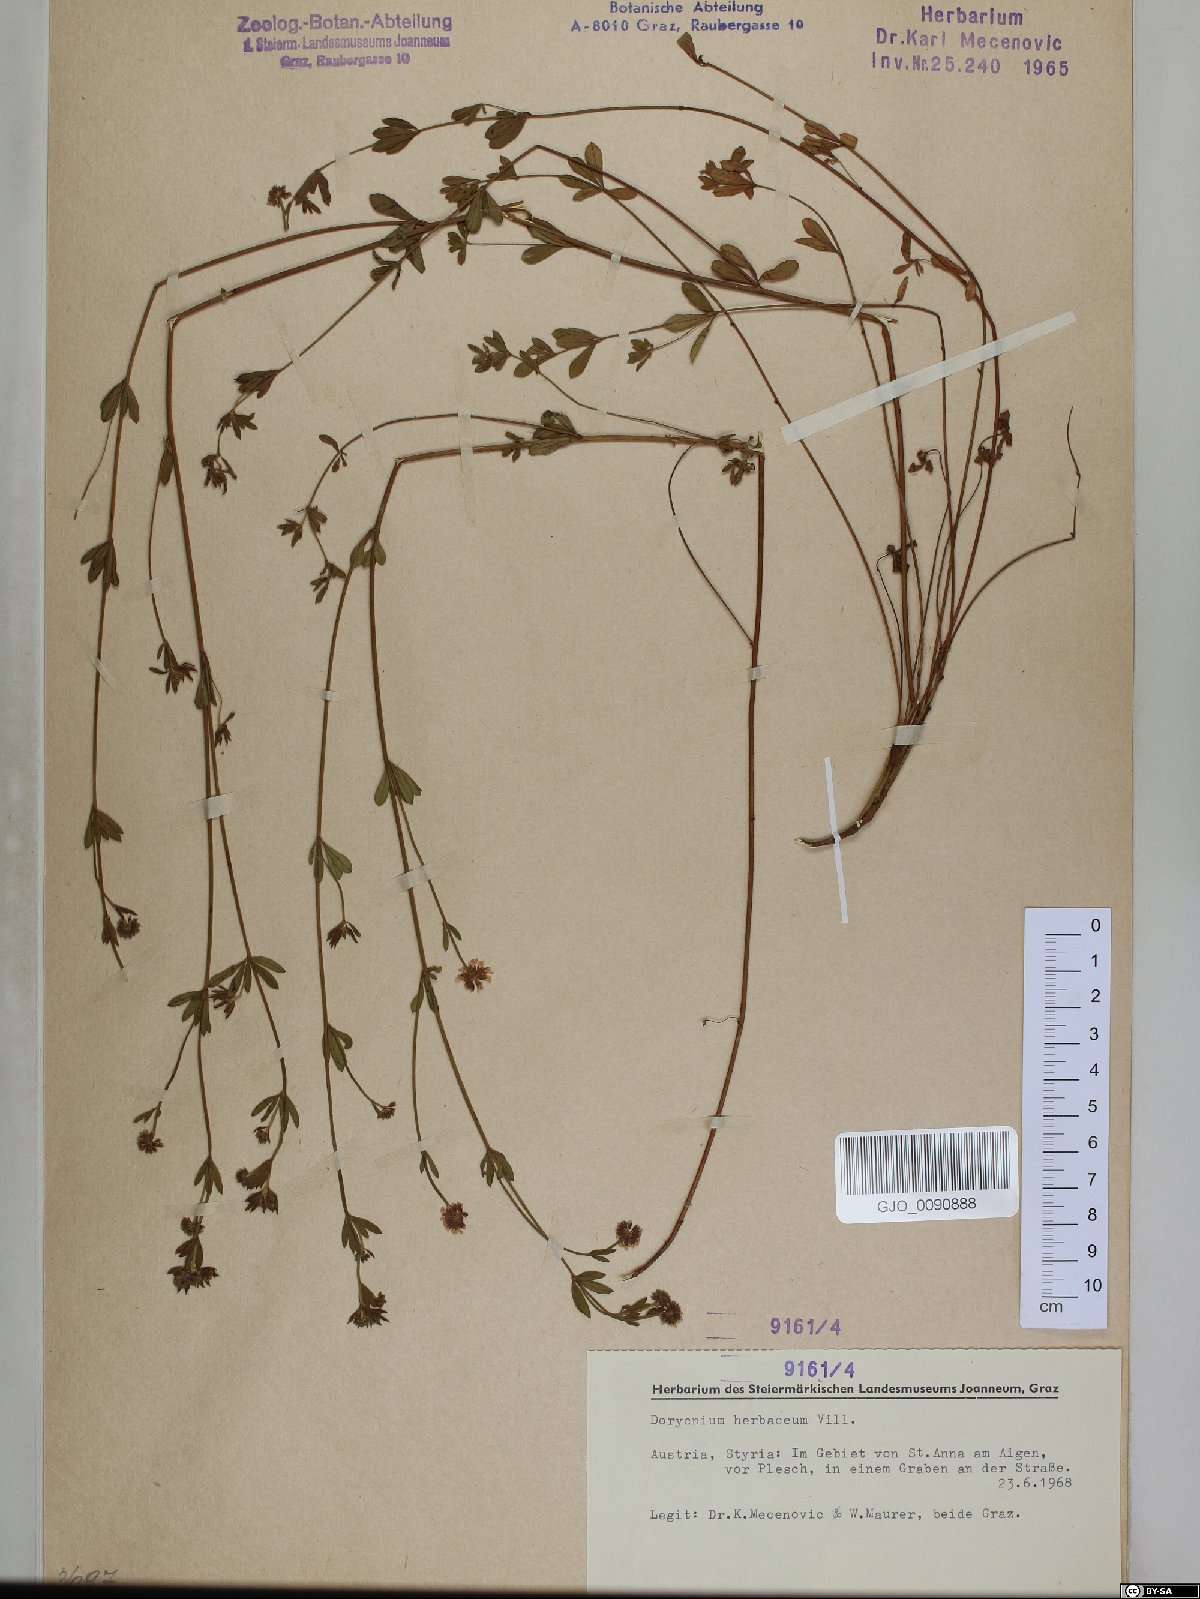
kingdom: Plantae
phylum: Tracheophyta
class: Magnoliopsida
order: Fabales
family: Fabaceae
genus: Lotus
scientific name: Lotus herbaceus
